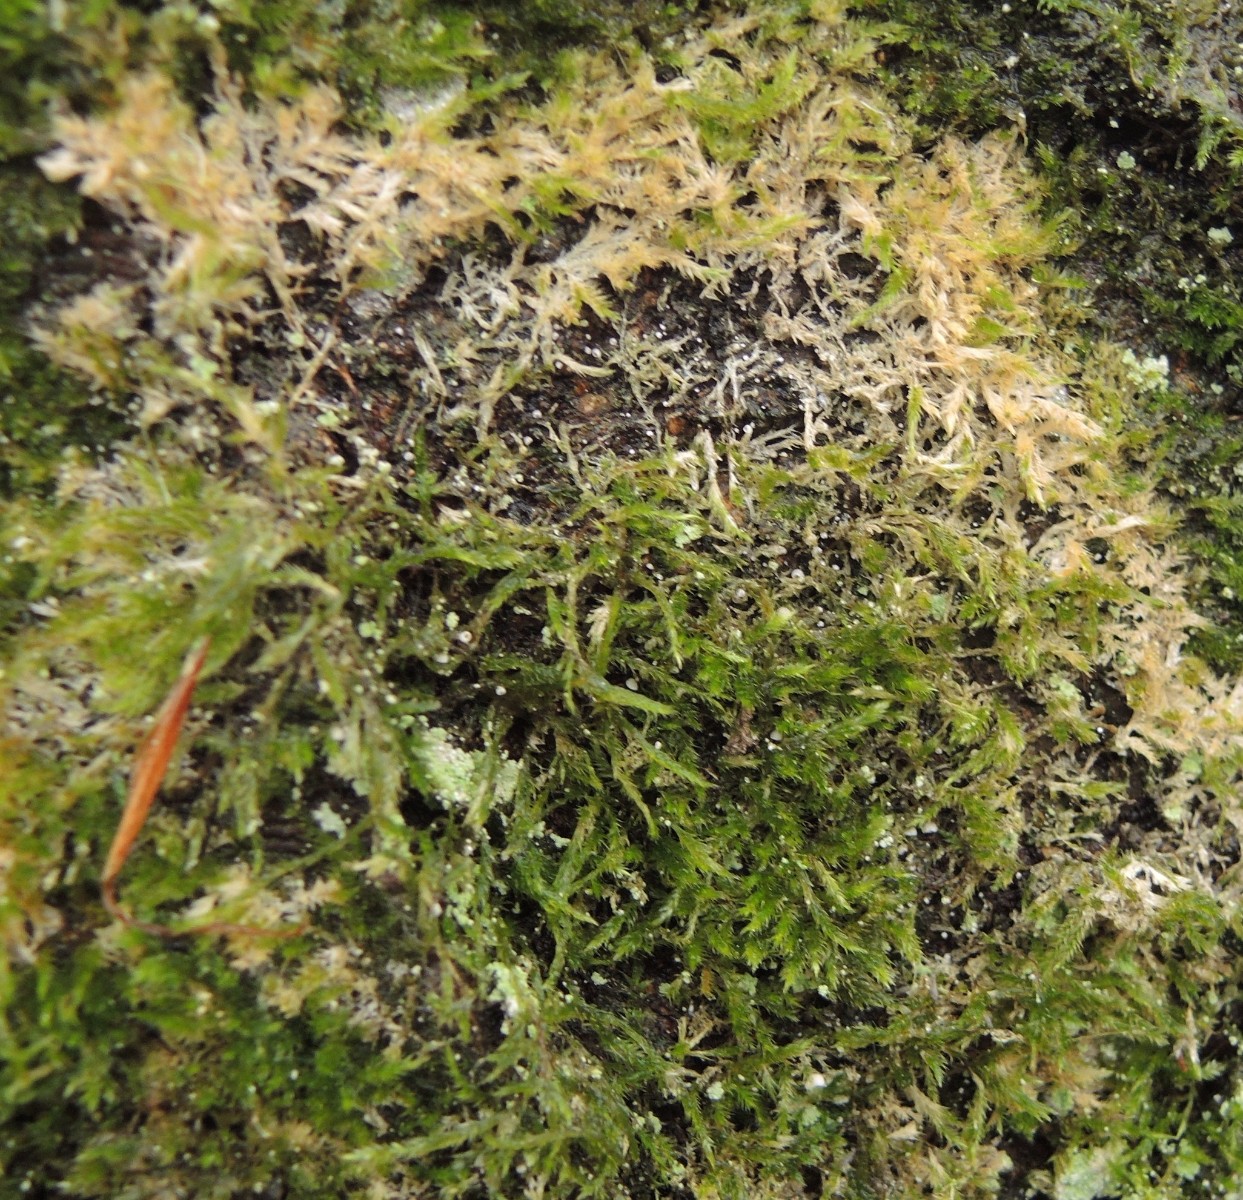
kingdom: Fungi
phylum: Basidiomycota
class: Agaricomycetes
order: Agaricales
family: Chromocyphellaceae
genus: Chromocyphella
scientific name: Chromocyphella muscicola
